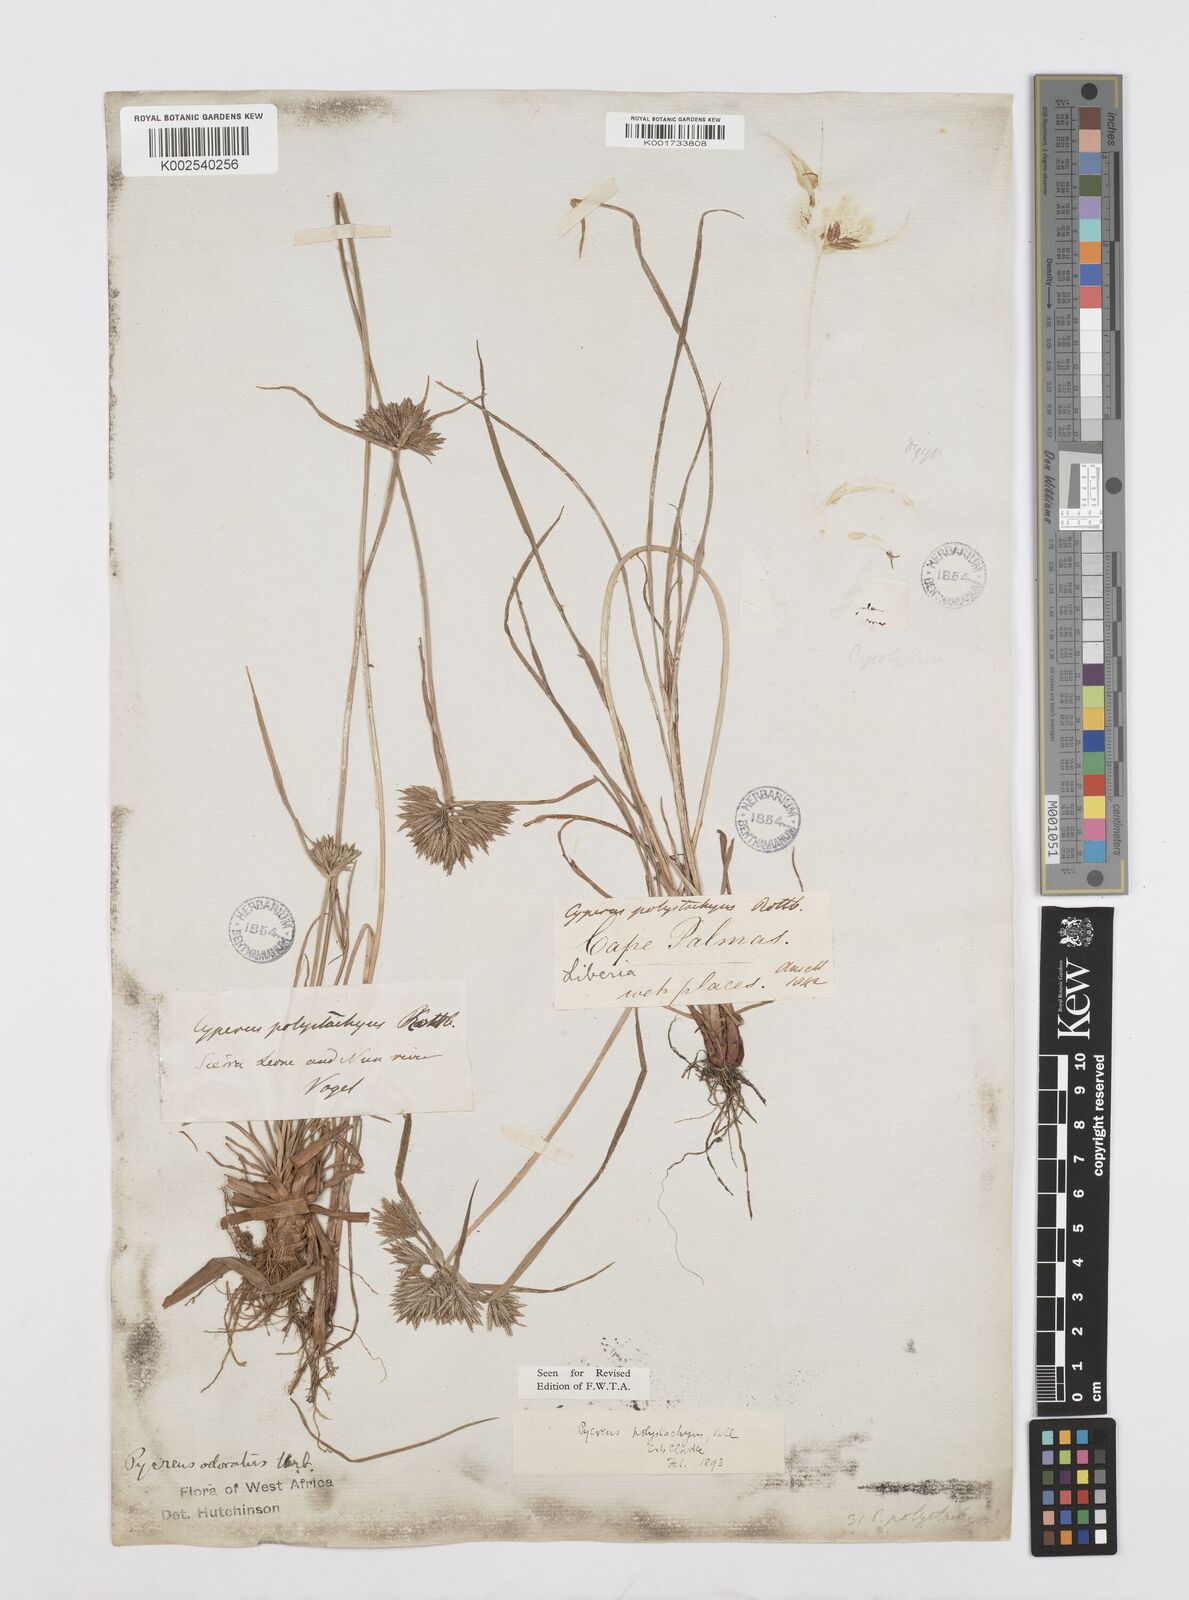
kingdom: Plantae
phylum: Tracheophyta
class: Liliopsida
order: Poales
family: Cyperaceae
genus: Cyperus
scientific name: Cyperus polystachyos
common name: Bunchy flat sedge
